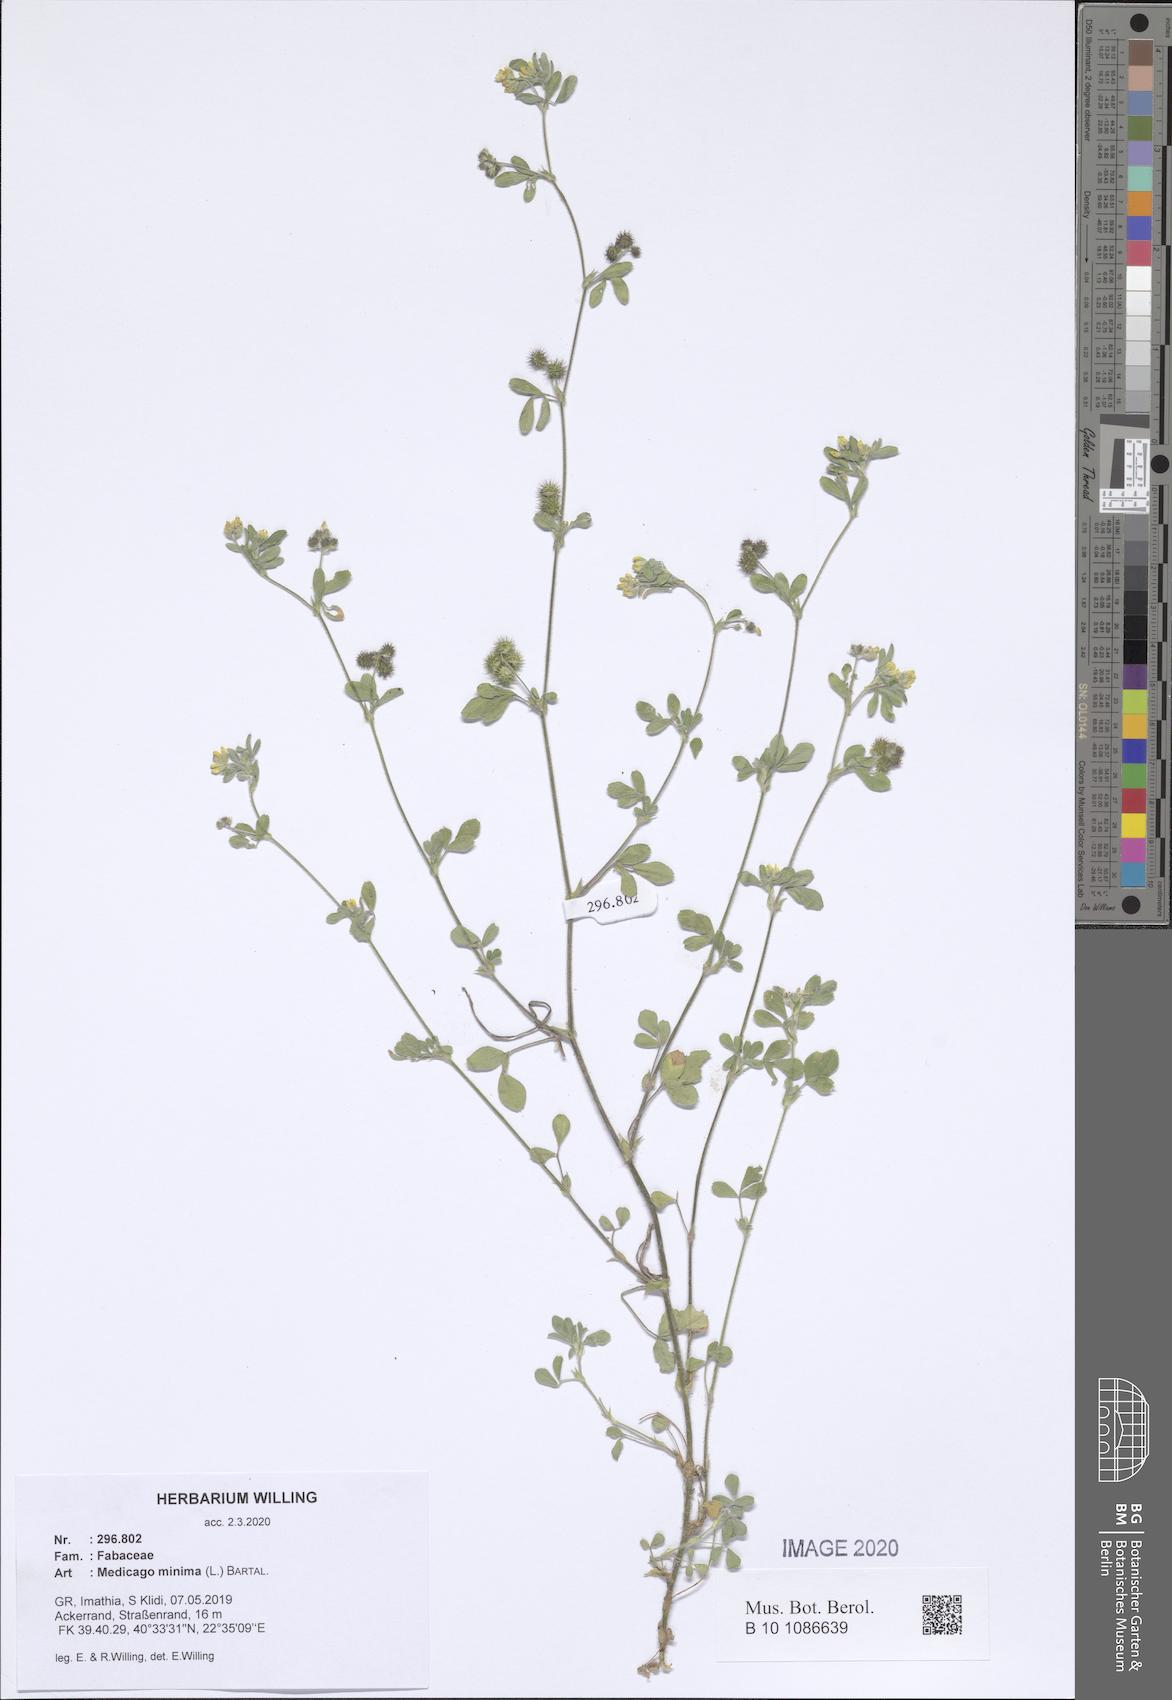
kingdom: Plantae
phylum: Tracheophyta
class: Magnoliopsida
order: Fabales
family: Fabaceae
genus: Medicago
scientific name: Medicago minima
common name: Little bur-clover
